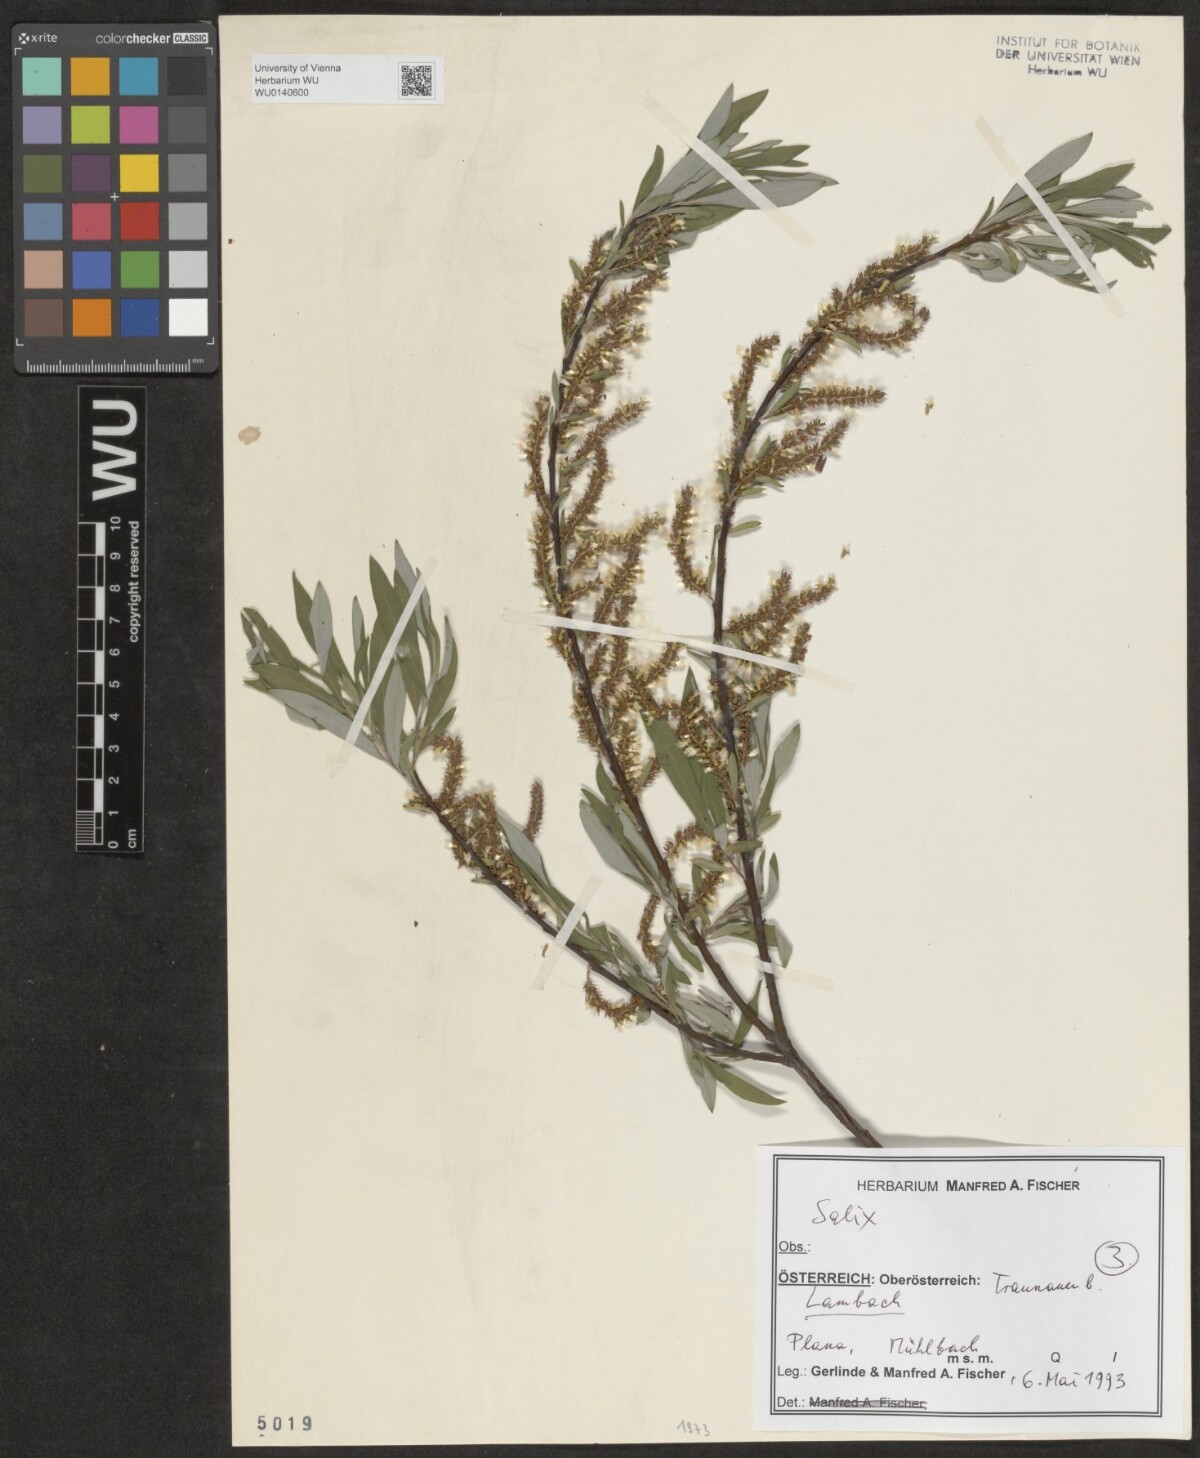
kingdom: Plantae
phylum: Tracheophyta
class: Magnoliopsida
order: Malpighiales
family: Salicaceae
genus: Salix
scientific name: Salix
